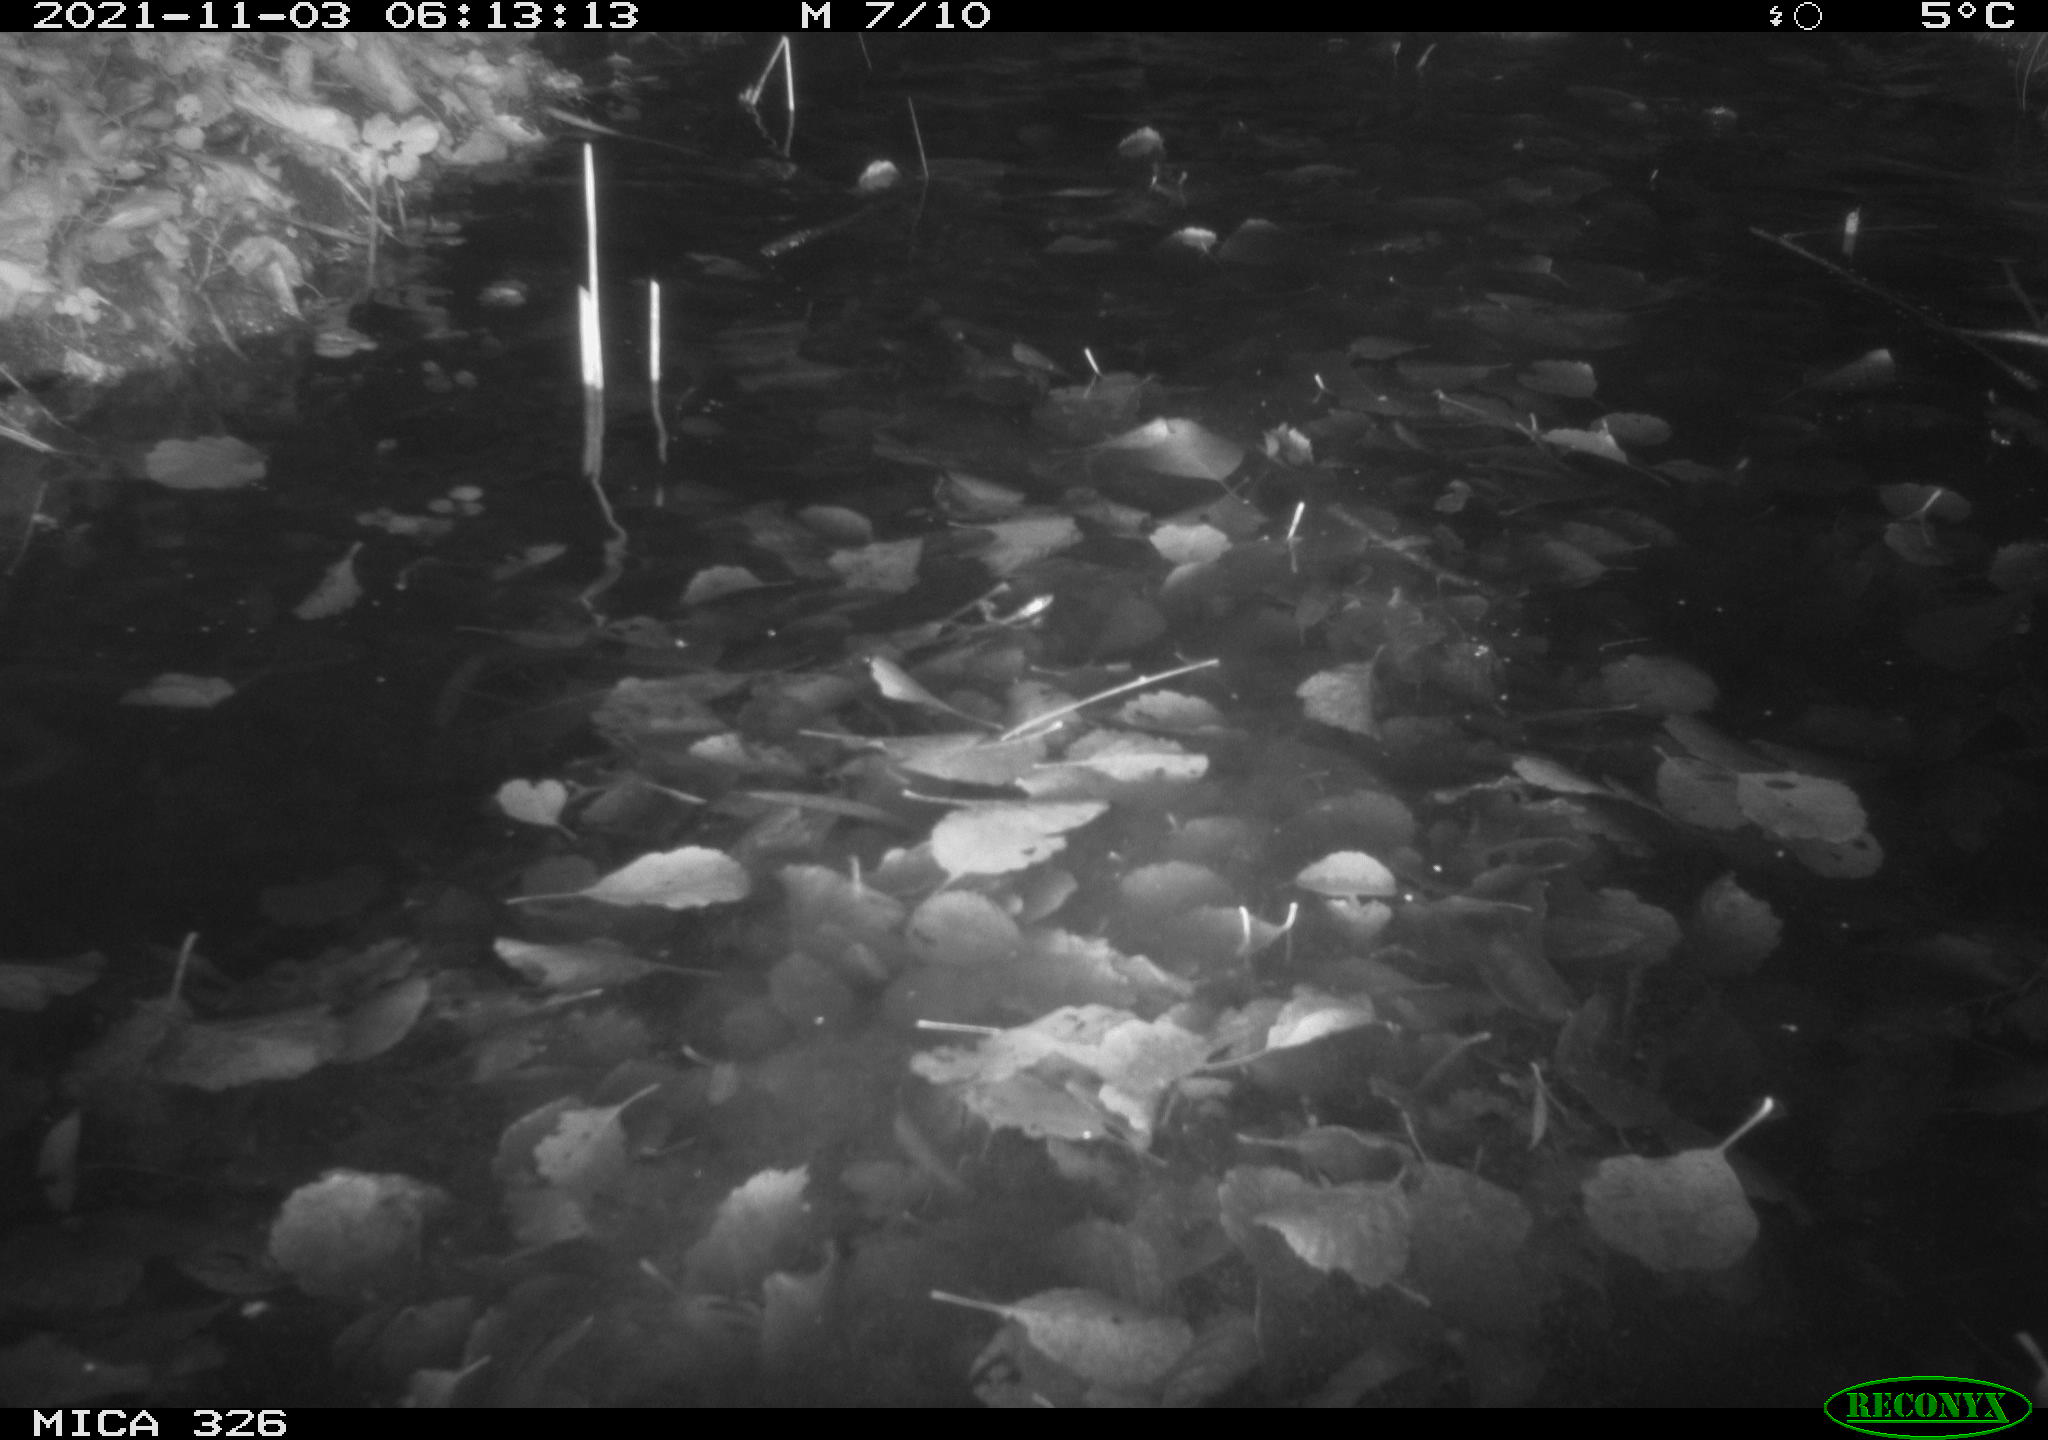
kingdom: Animalia
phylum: Chordata
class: Mammalia
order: Rodentia
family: Myocastoridae
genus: Myocastor
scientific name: Myocastor coypus
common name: Coypu
